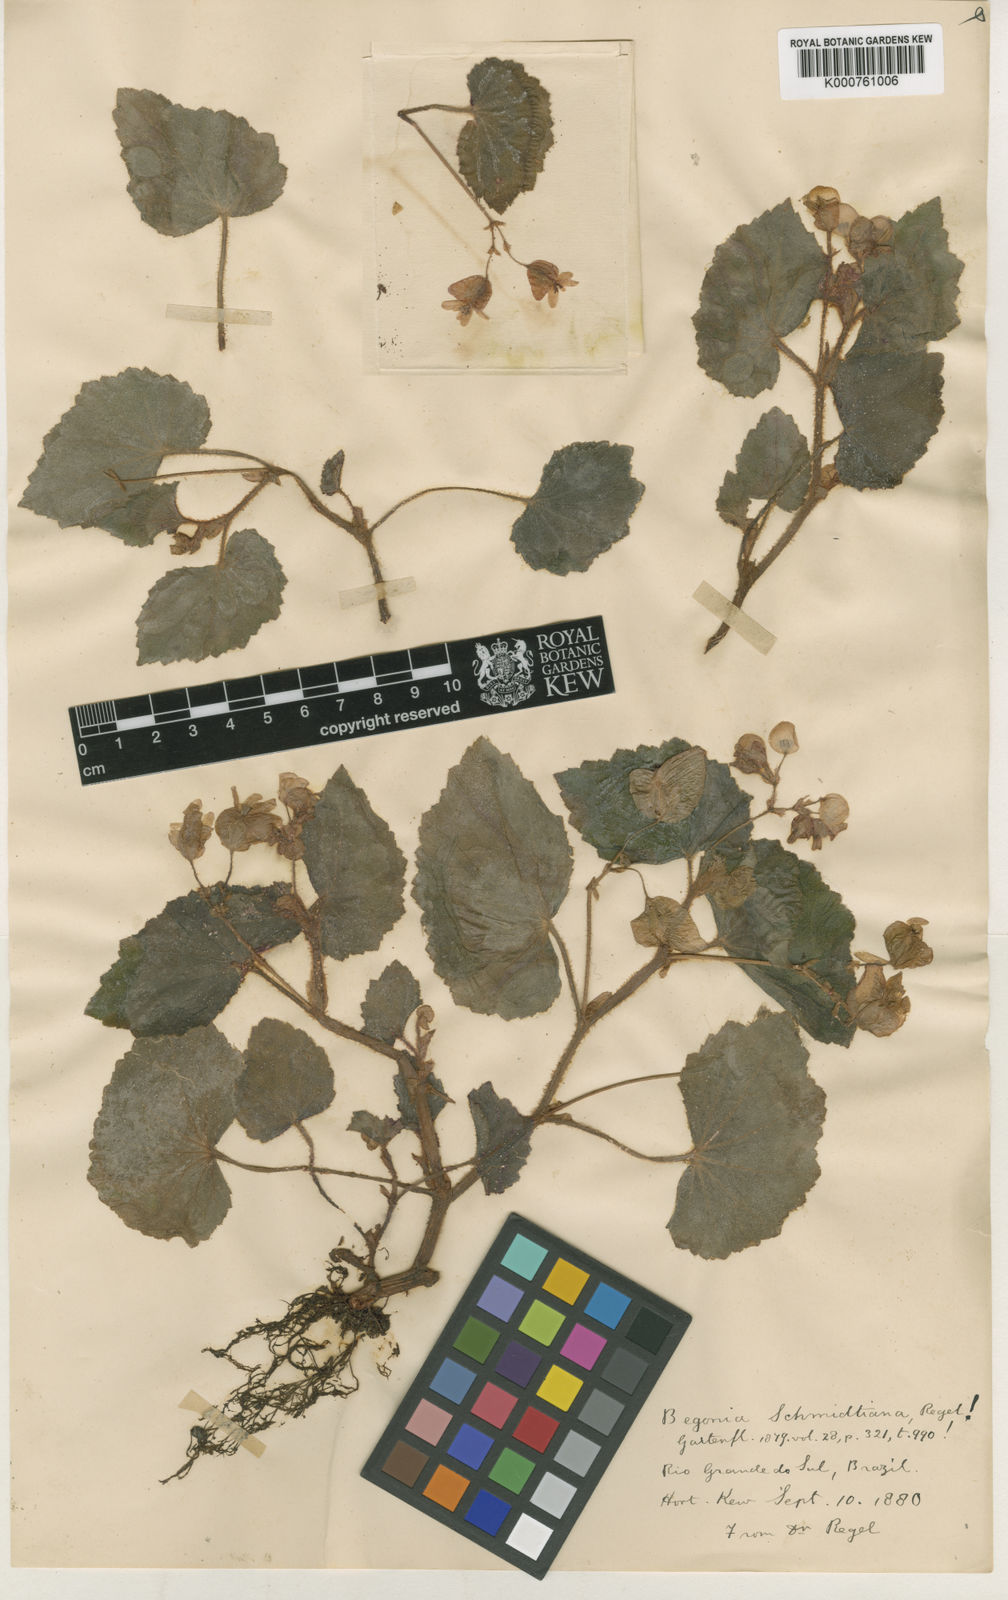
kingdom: Plantae
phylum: Tracheophyta
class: Magnoliopsida
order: Cucurbitales
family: Begoniaceae
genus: Begonia
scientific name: Begonia subvillosa
